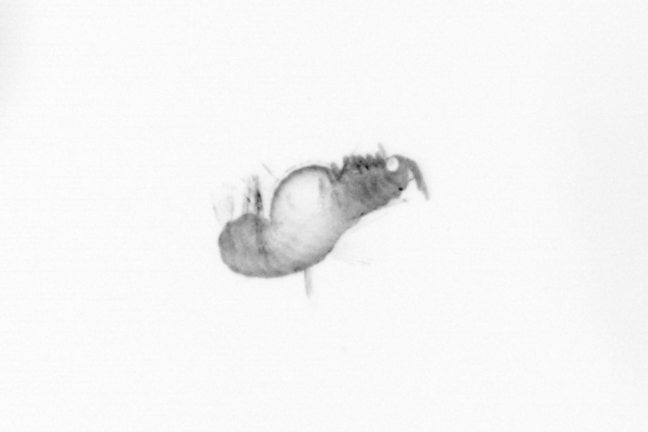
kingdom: Animalia
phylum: Annelida
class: Polychaeta
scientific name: Polychaeta
